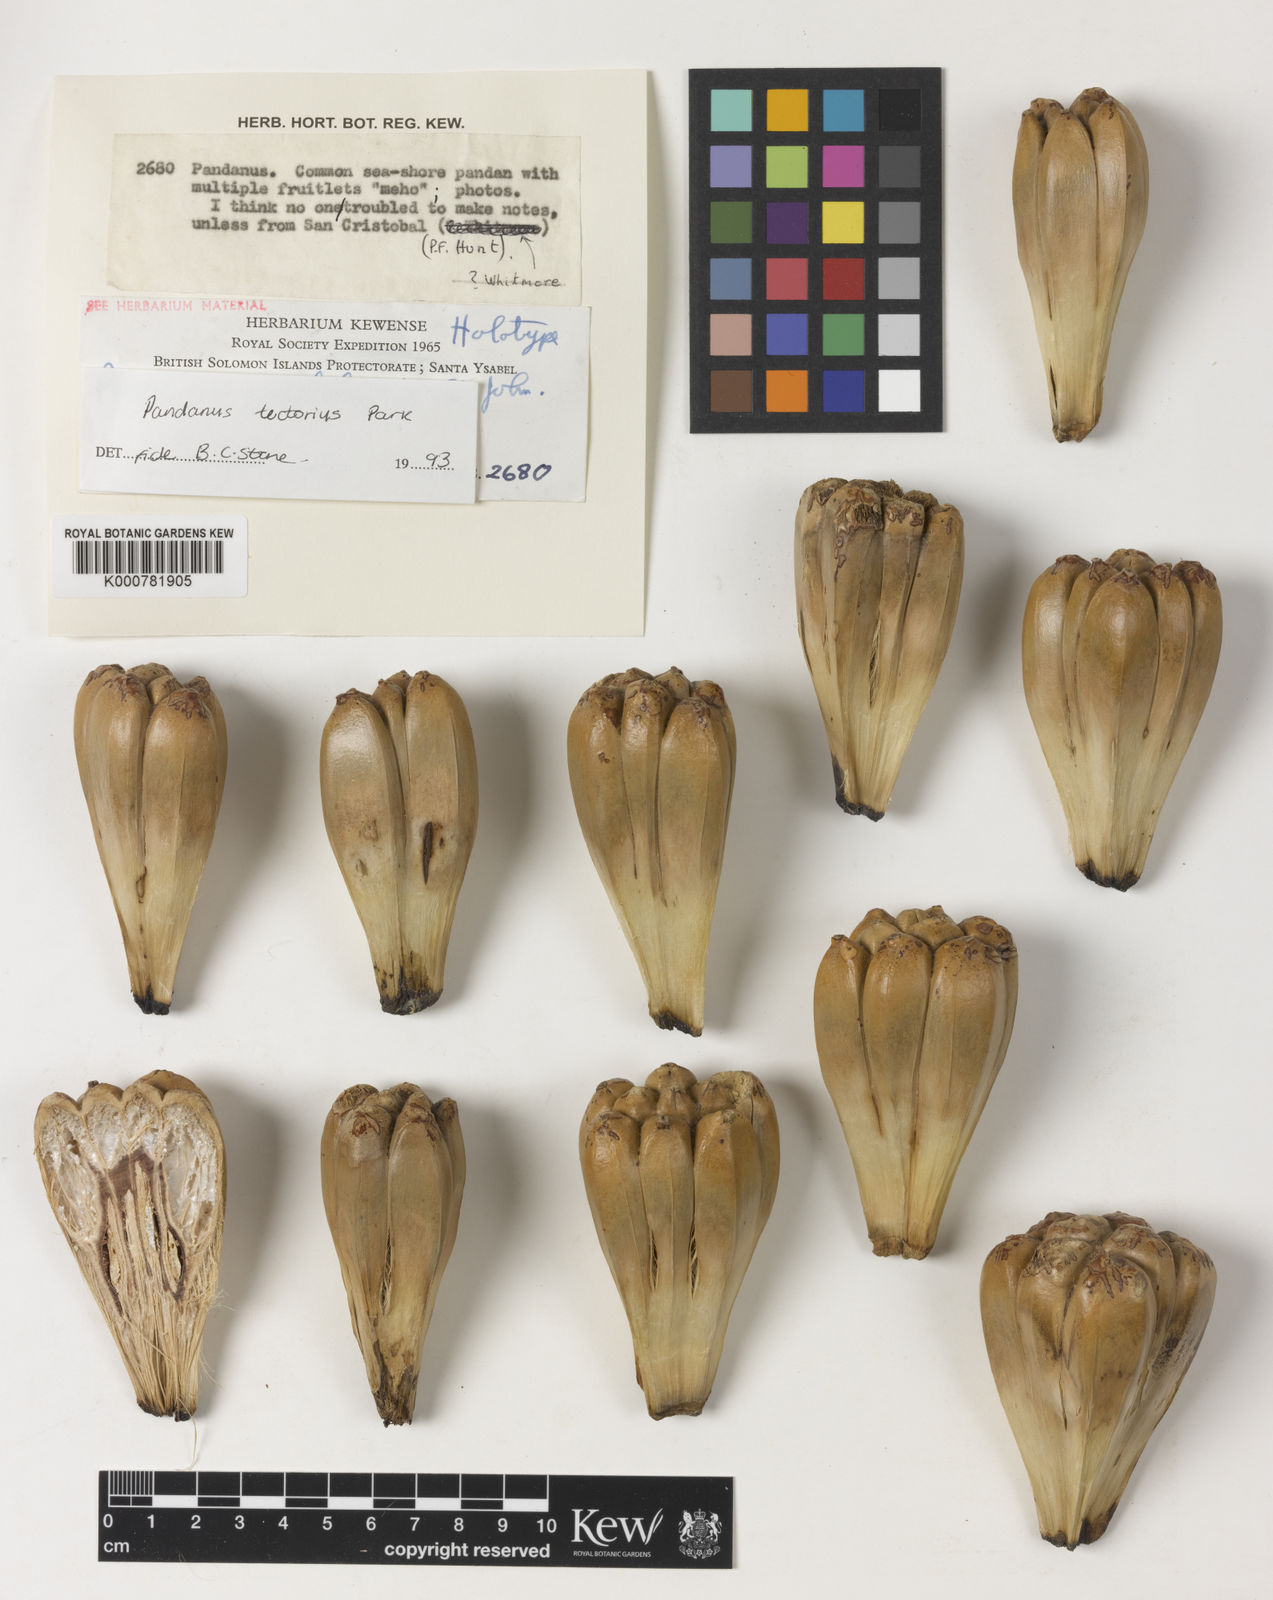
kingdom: Plantae
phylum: Tracheophyta
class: Liliopsida
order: Pandanales
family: Pandanaceae
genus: Pandanus
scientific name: Pandanus
